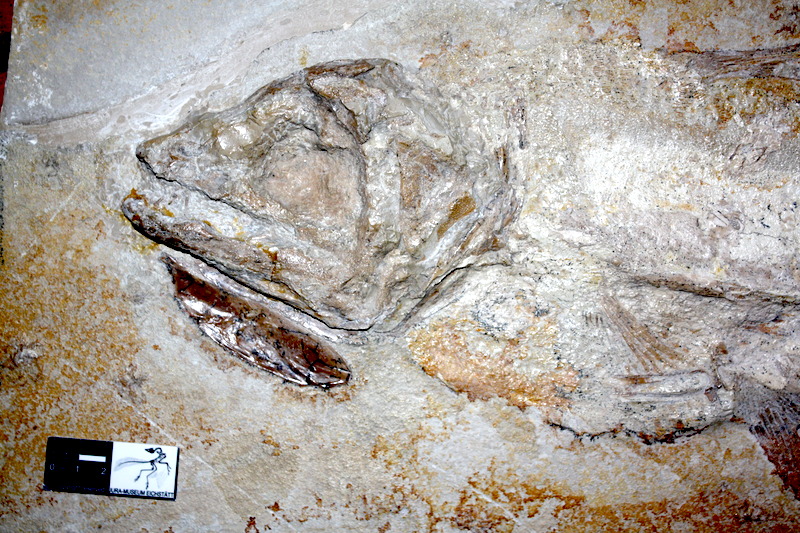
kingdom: Animalia
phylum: Chordata
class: Coelacanthi
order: Coelacanthiformes
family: Latimeroidea
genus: Macropoma
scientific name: Macropoma willemoesii
